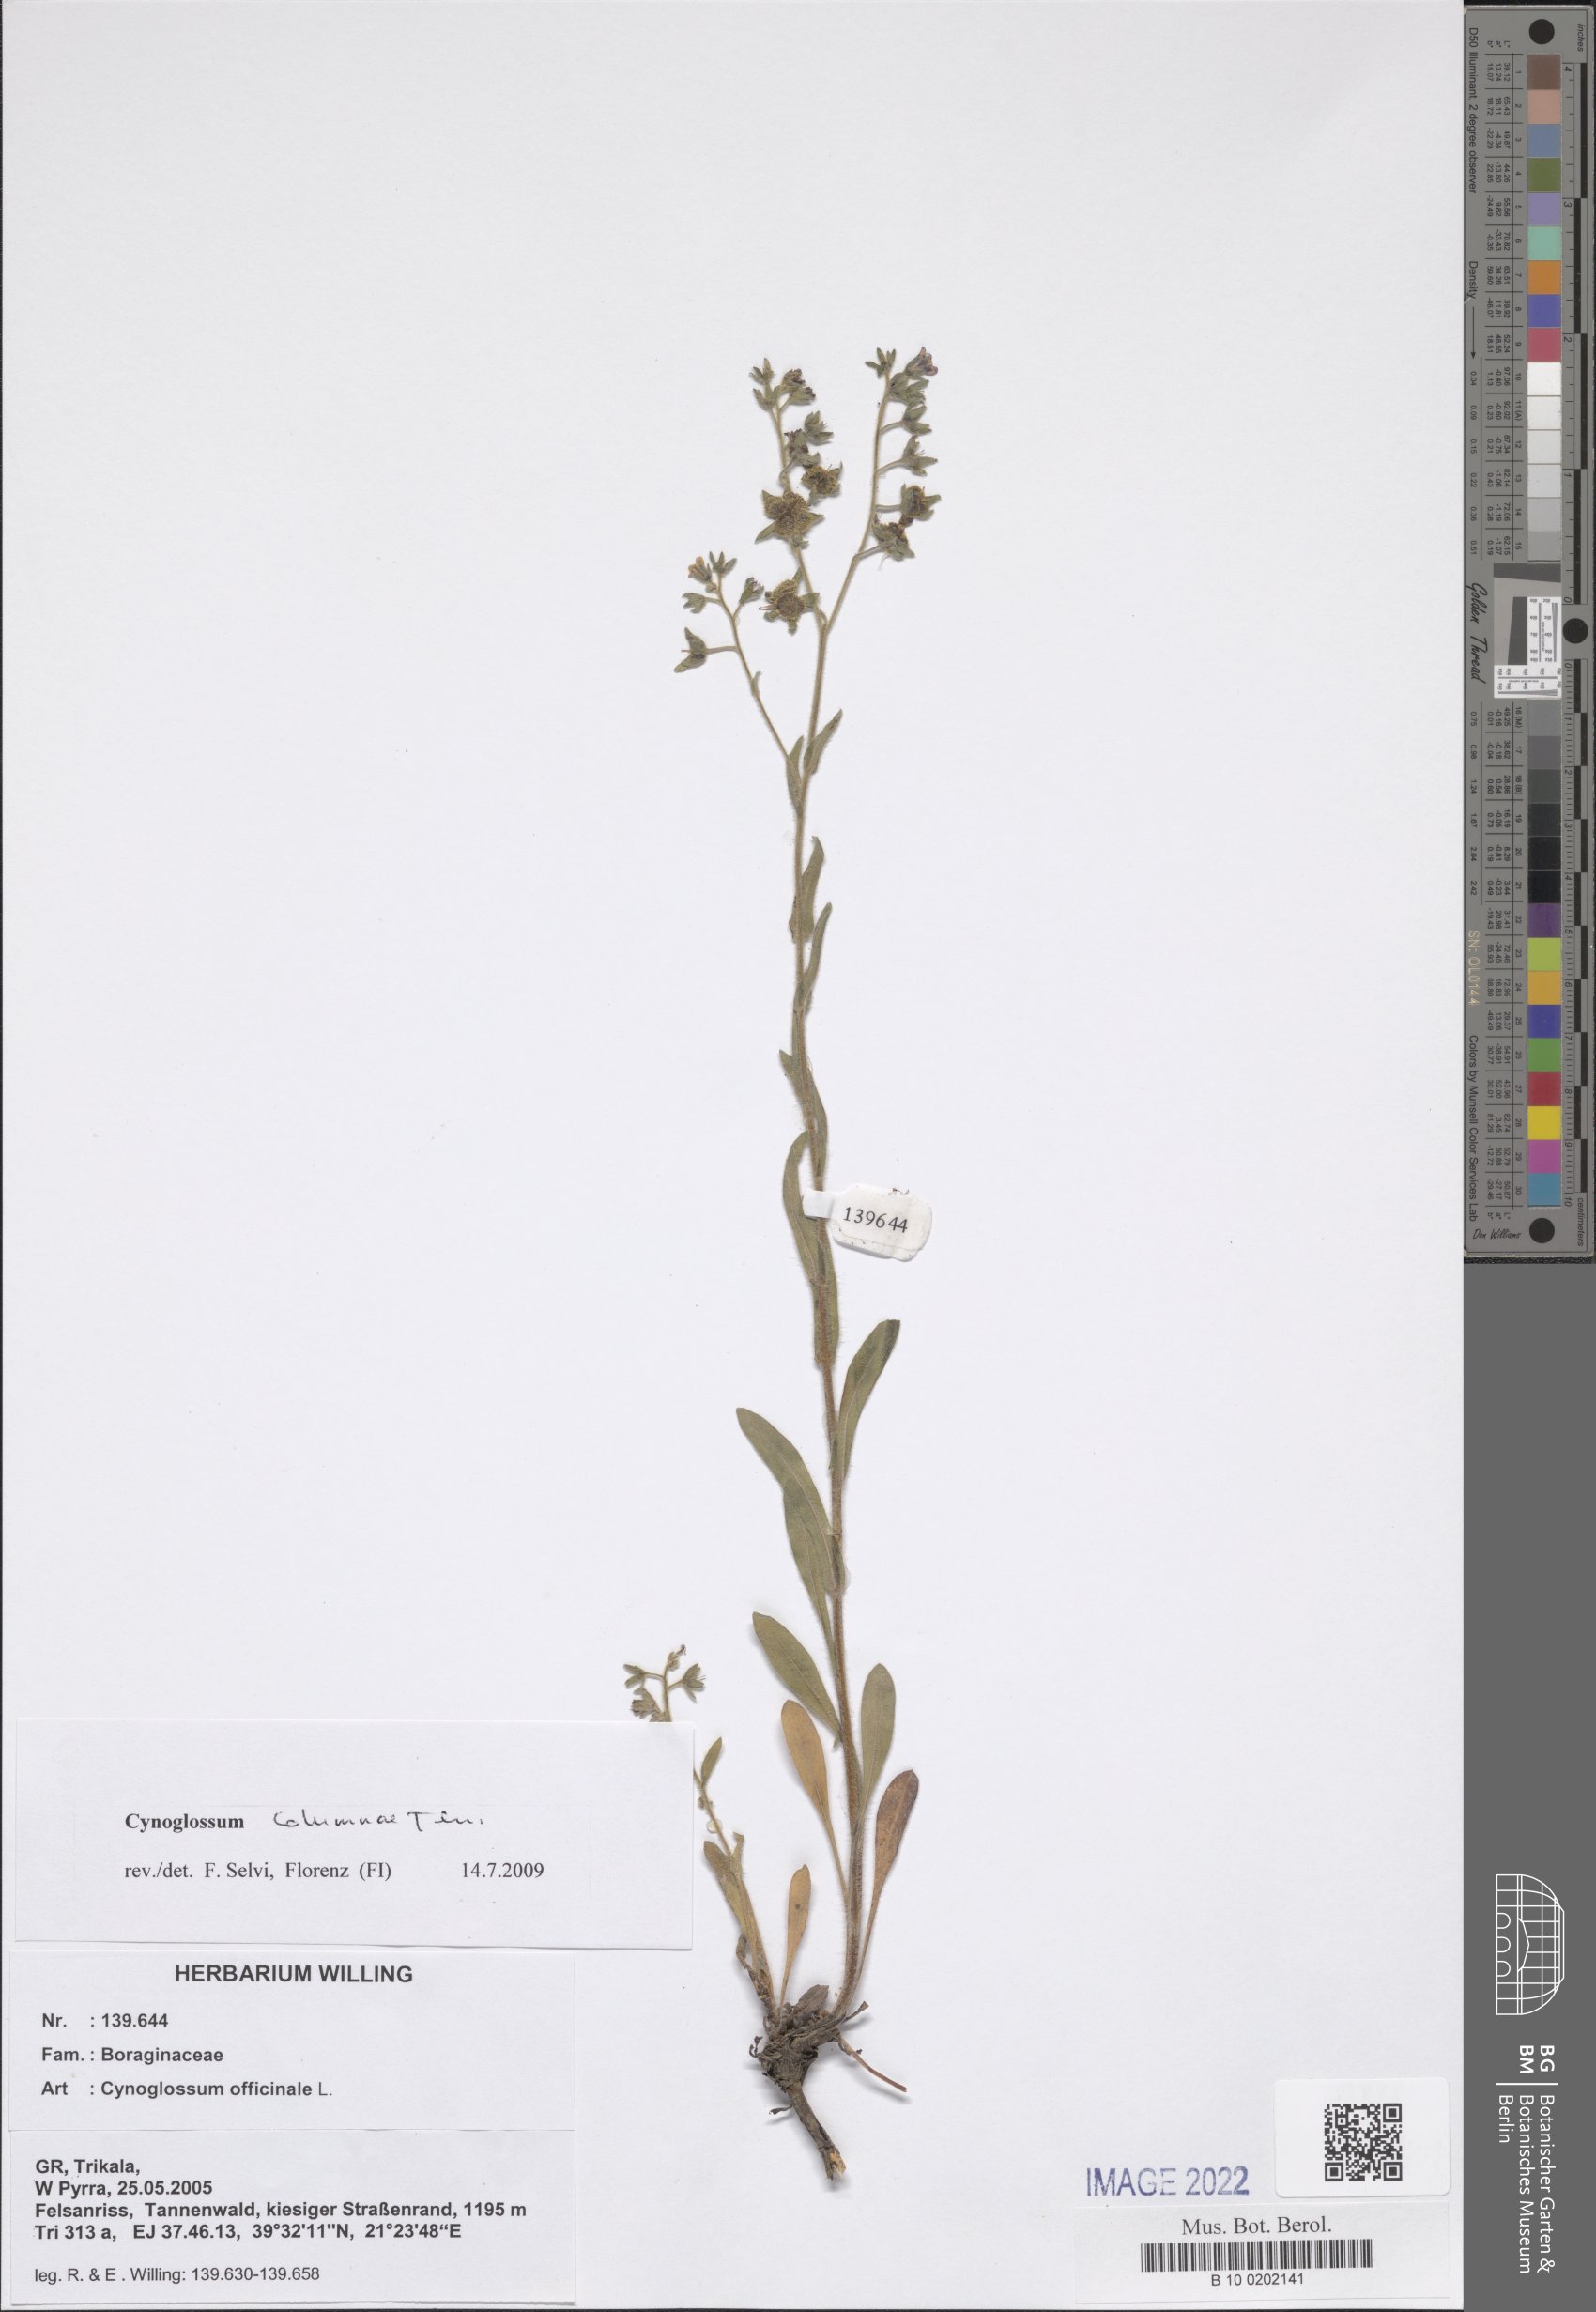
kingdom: Plantae
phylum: Tracheophyta
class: Magnoliopsida
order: Boraginales
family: Boraginaceae
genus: Rindera
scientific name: Rindera columnae
